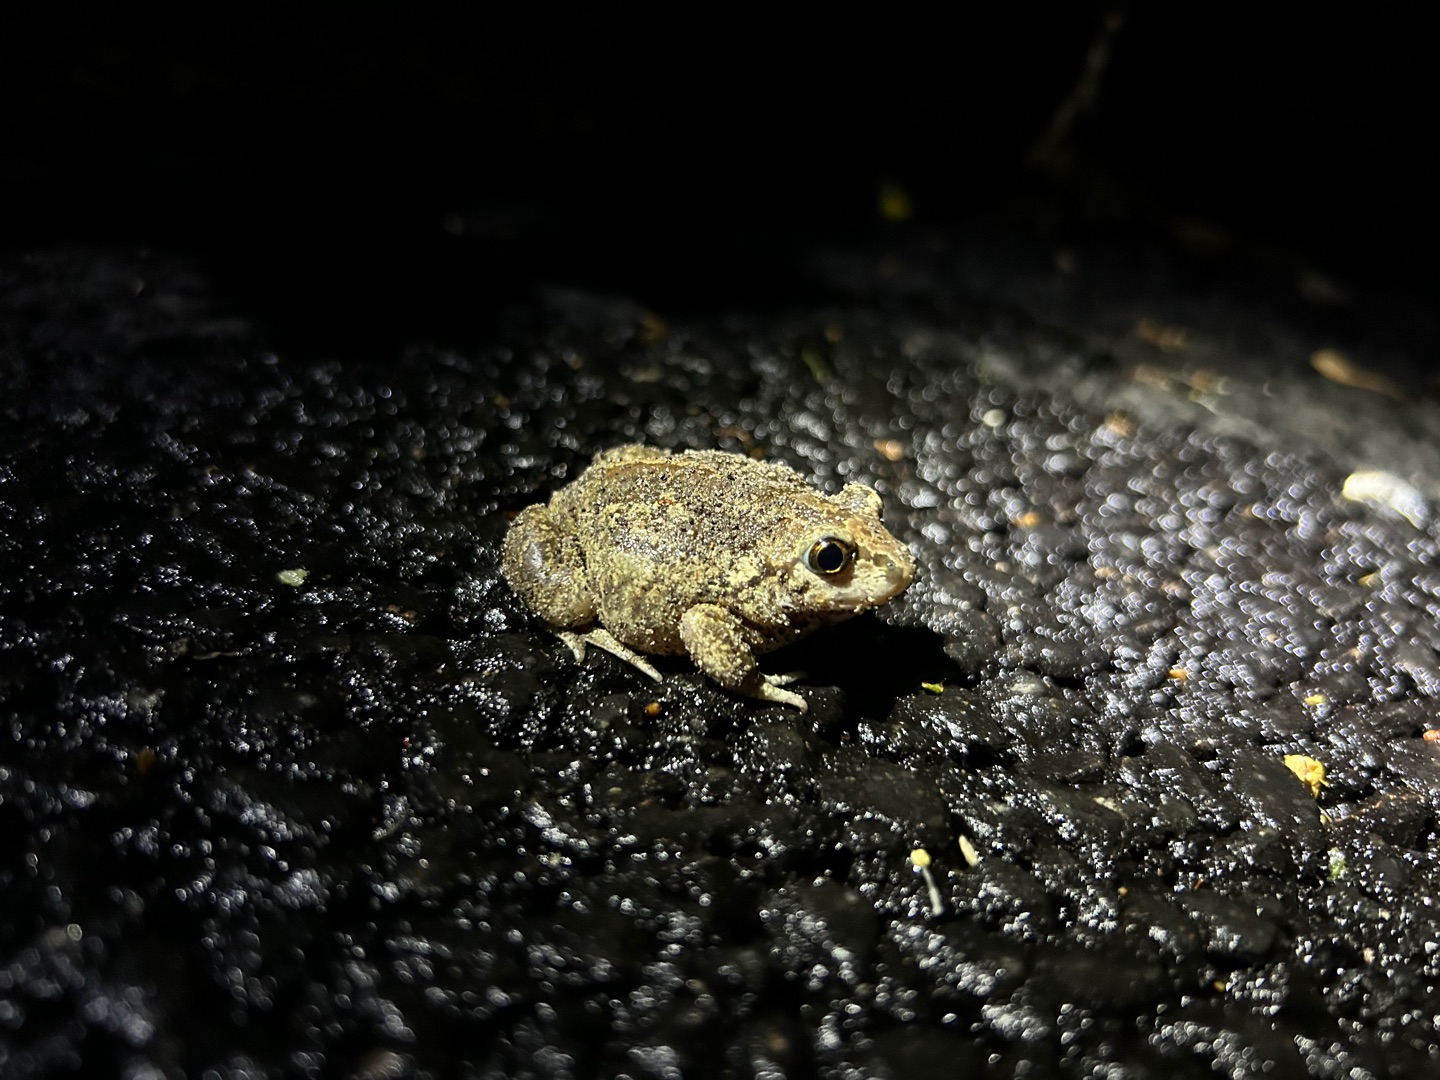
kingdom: Animalia
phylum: Chordata
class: Amphibia
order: Anura
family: Pelobatidae
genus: Pelobates
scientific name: Pelobates fuscus
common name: Løgfrø
